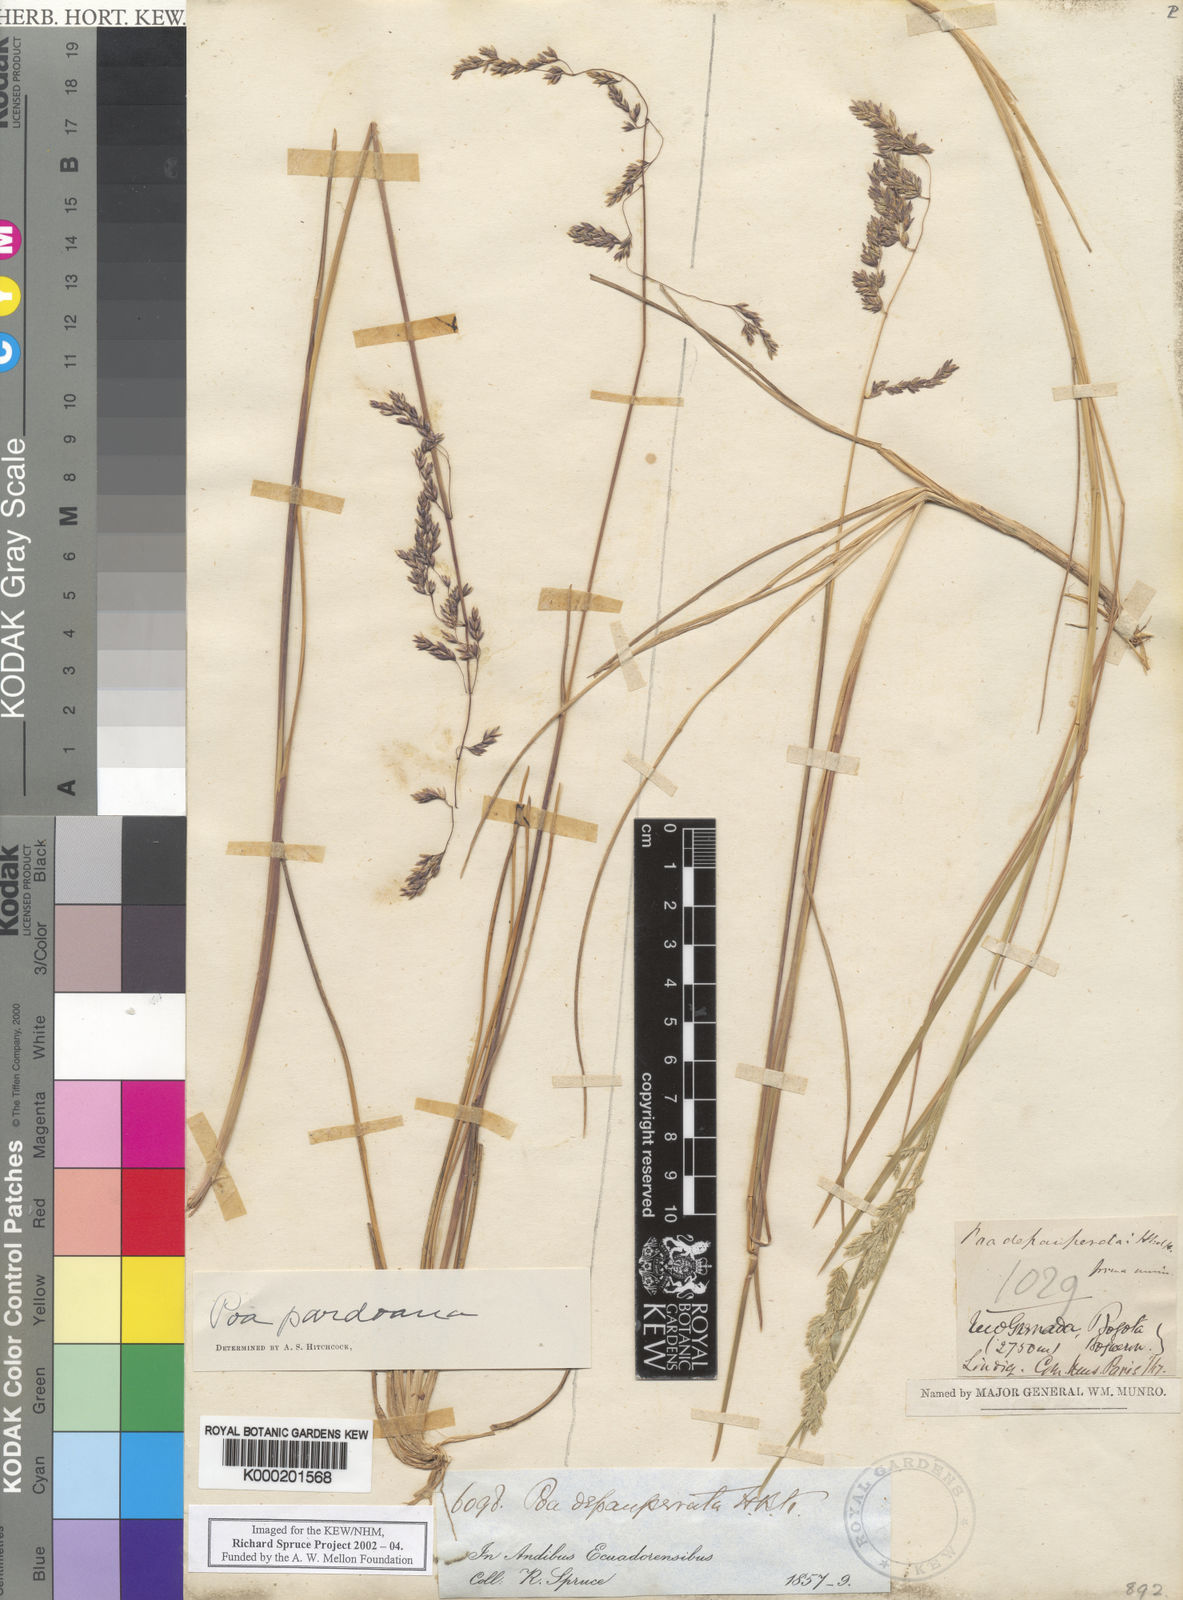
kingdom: Plantae
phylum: Tracheophyta
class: Liliopsida
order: Poales
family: Poaceae
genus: Poa
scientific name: Poa mucuchachensis
